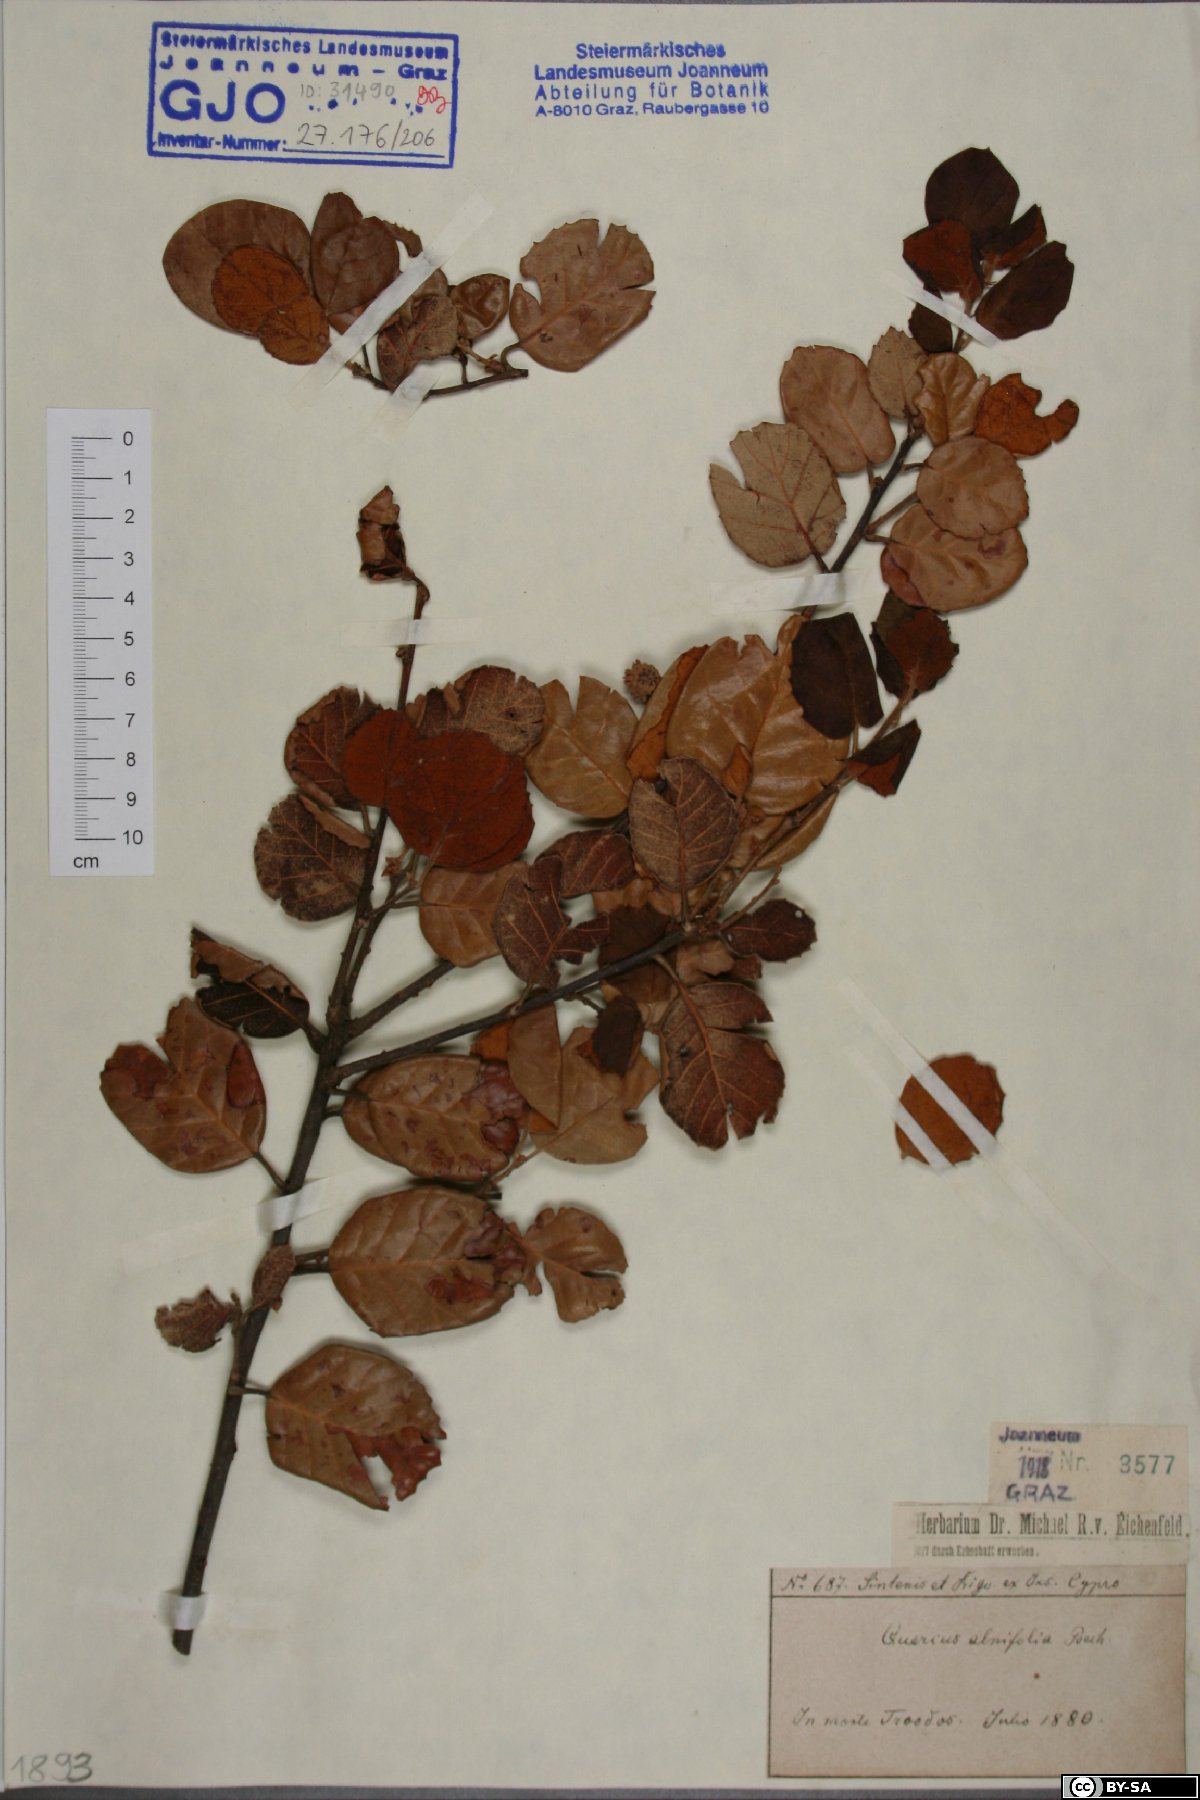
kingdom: Plantae
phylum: Tracheophyta
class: Magnoliopsida
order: Fagales
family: Fagaceae
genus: Quercus
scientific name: Quercus alnifolia
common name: Golden oak
